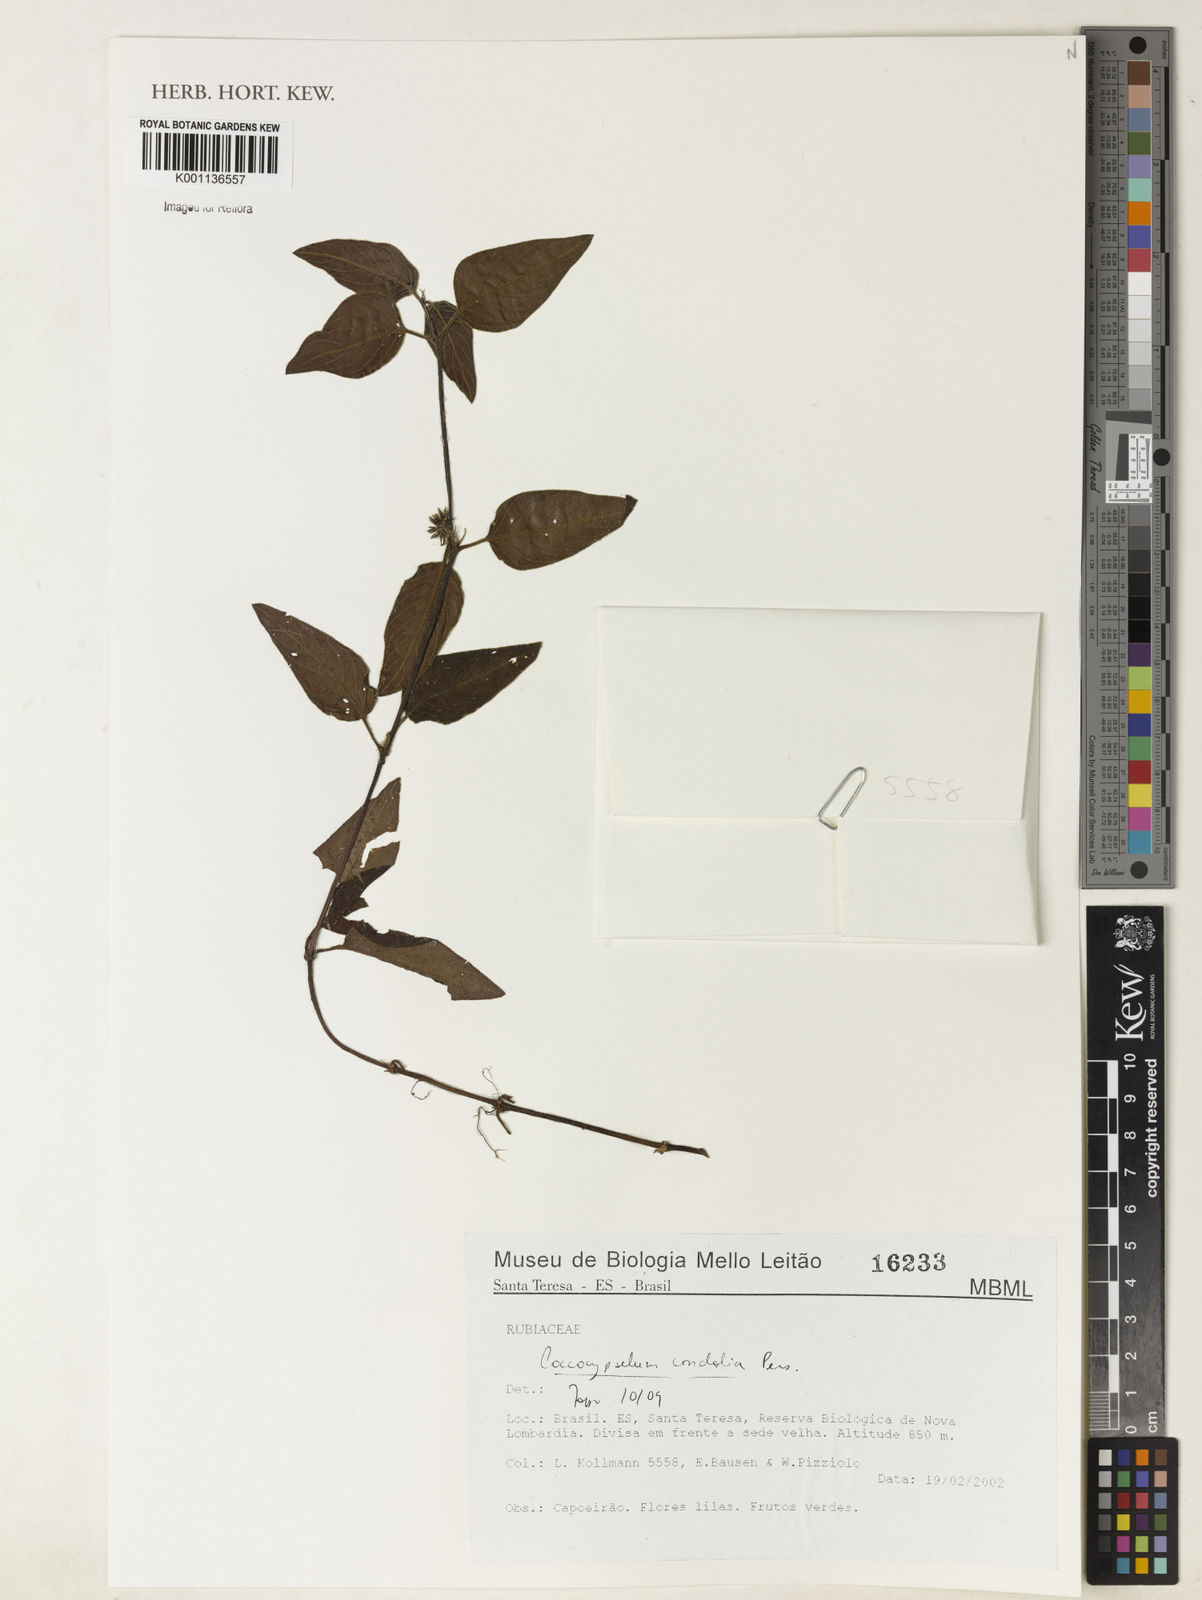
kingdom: Plantae
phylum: Tracheophyta
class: Magnoliopsida
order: Gentianales
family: Rubiaceae
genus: Coccocypselum
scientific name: Coccocypselum condalia
